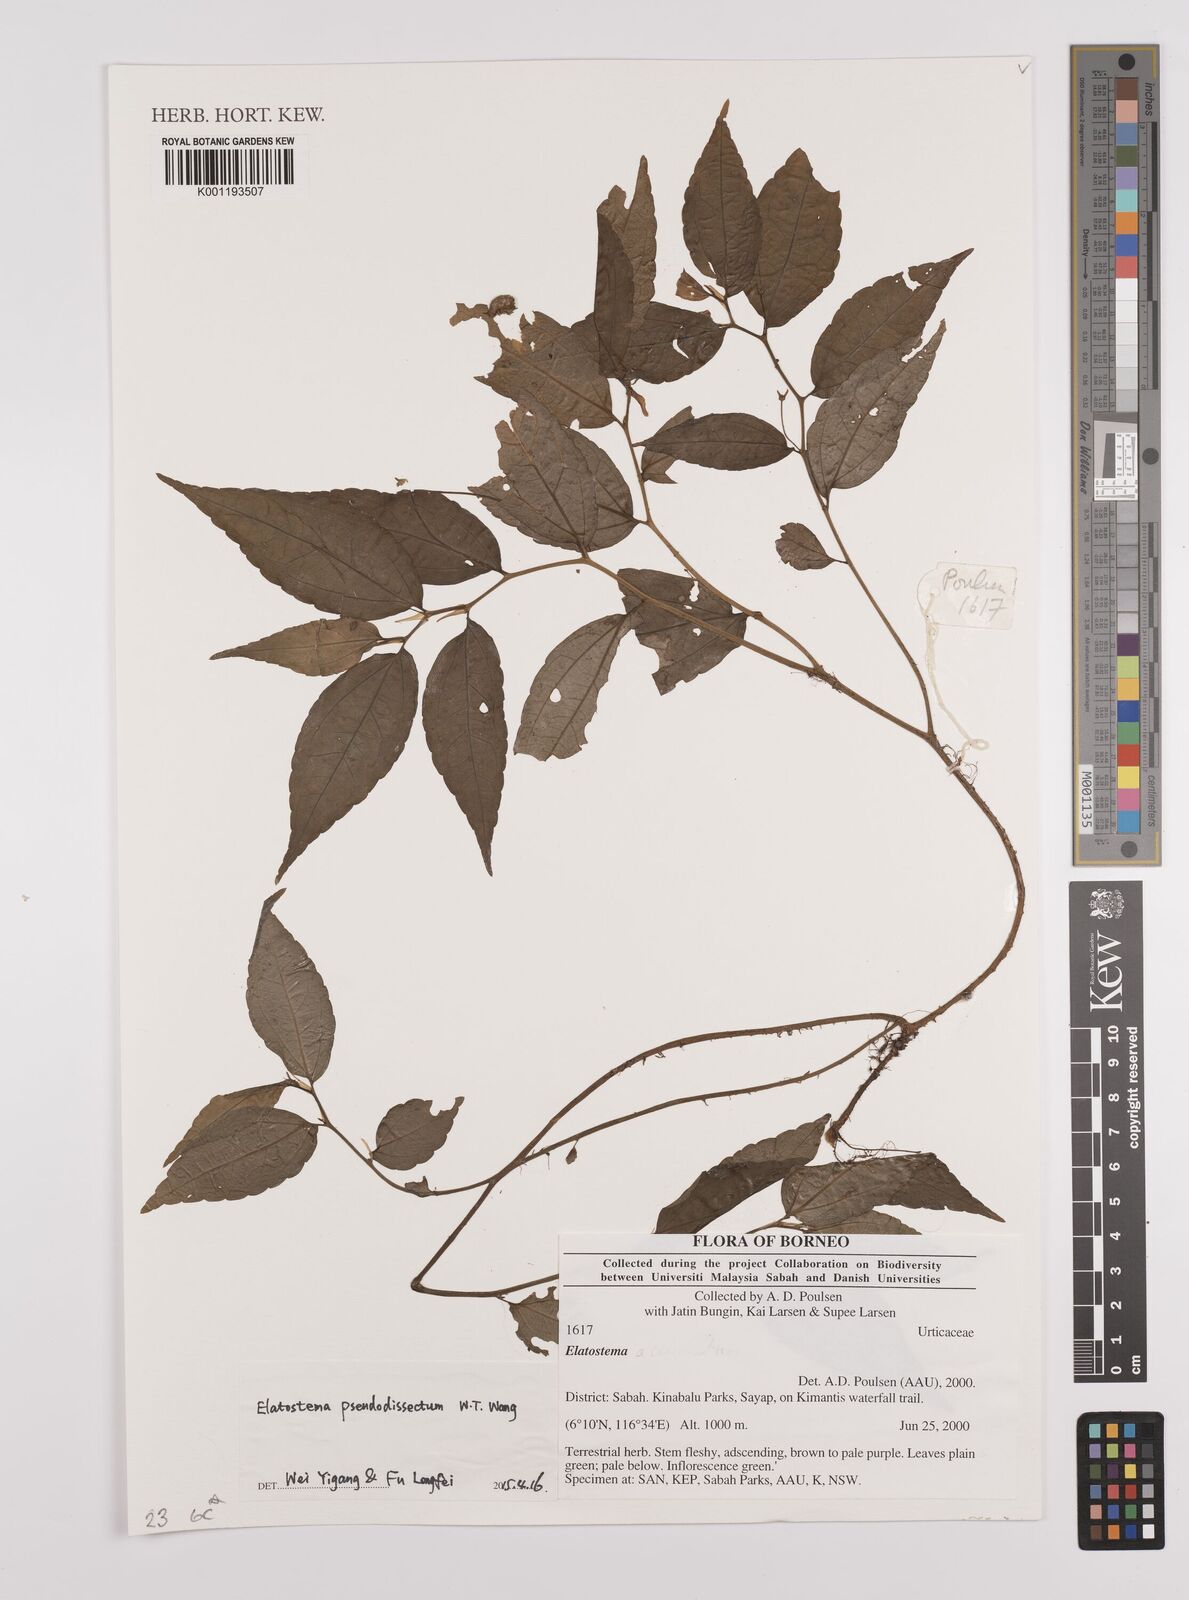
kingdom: Plantae
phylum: Tracheophyta
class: Magnoliopsida
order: Rosales
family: Urticaceae
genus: Elatostema
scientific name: Elatostema pseudodissectum
